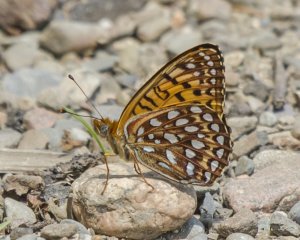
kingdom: Animalia
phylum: Arthropoda
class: Insecta
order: Lepidoptera
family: Nymphalidae
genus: Speyeria
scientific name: Speyeria atlantis
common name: Atlantis Fritillary
